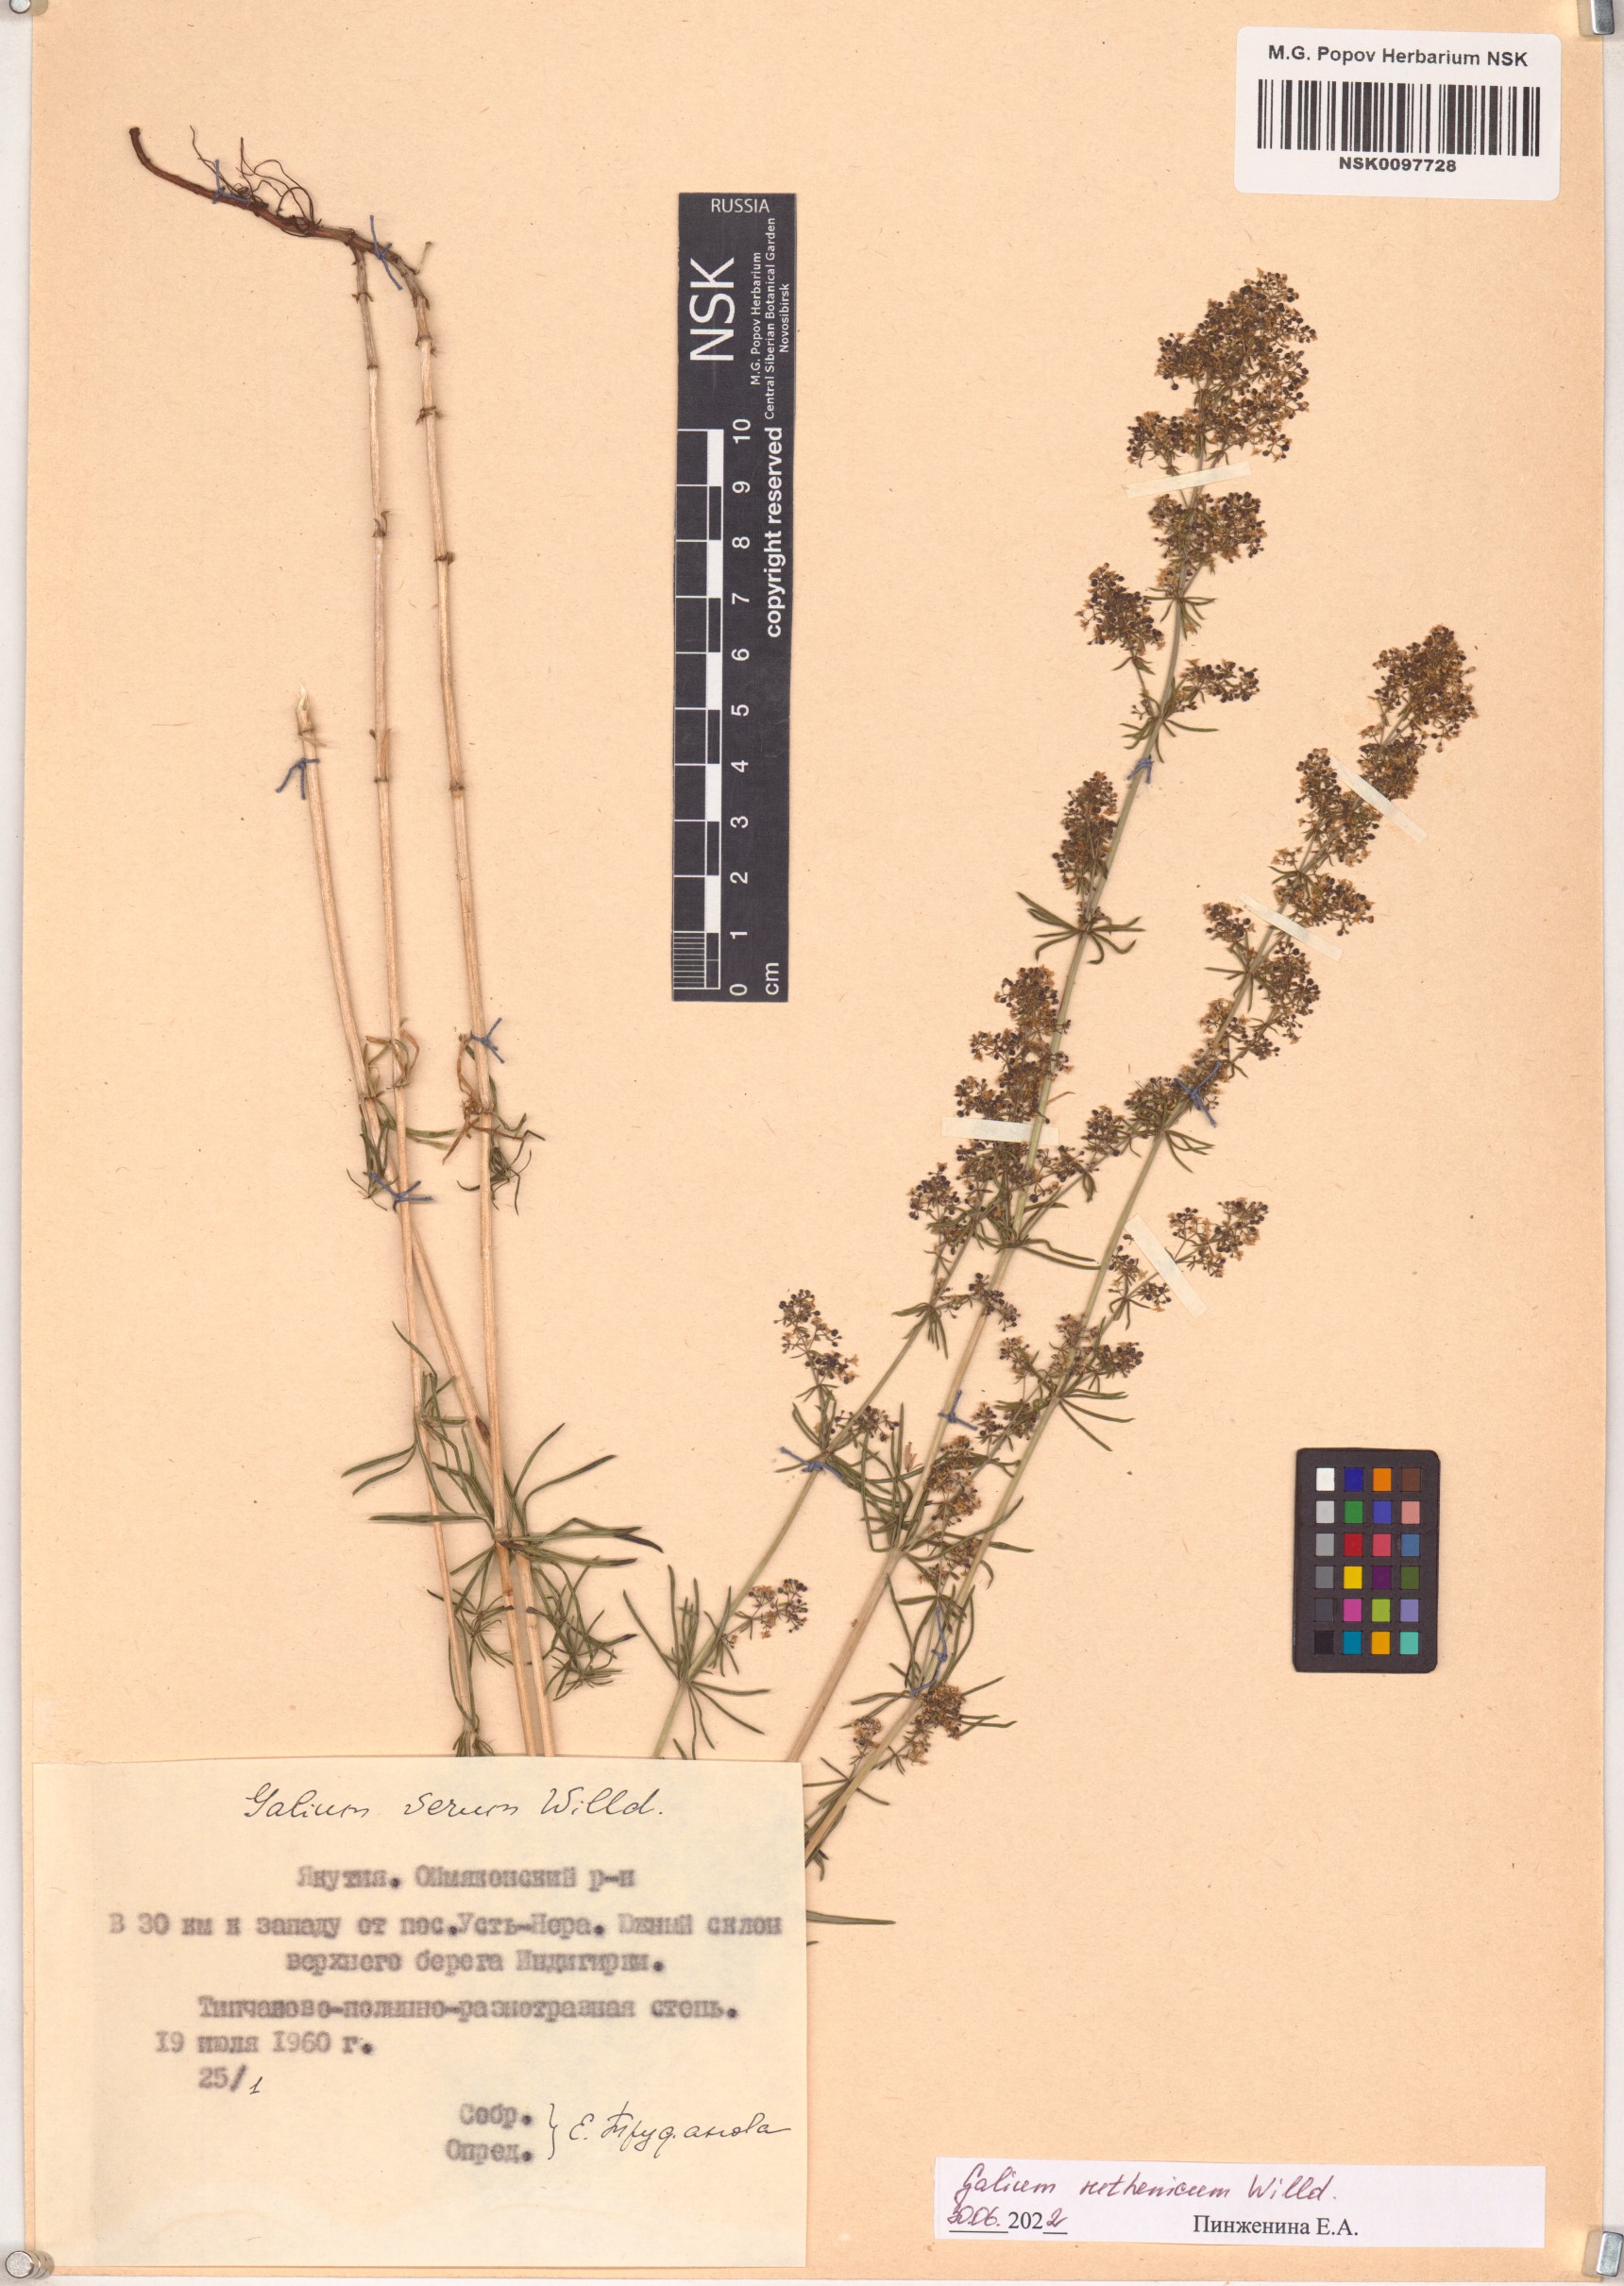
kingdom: Plantae
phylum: Tracheophyta
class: Magnoliopsida
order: Gentianales
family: Rubiaceae
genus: Galium
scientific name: Galium verum
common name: Lady's bedstraw
